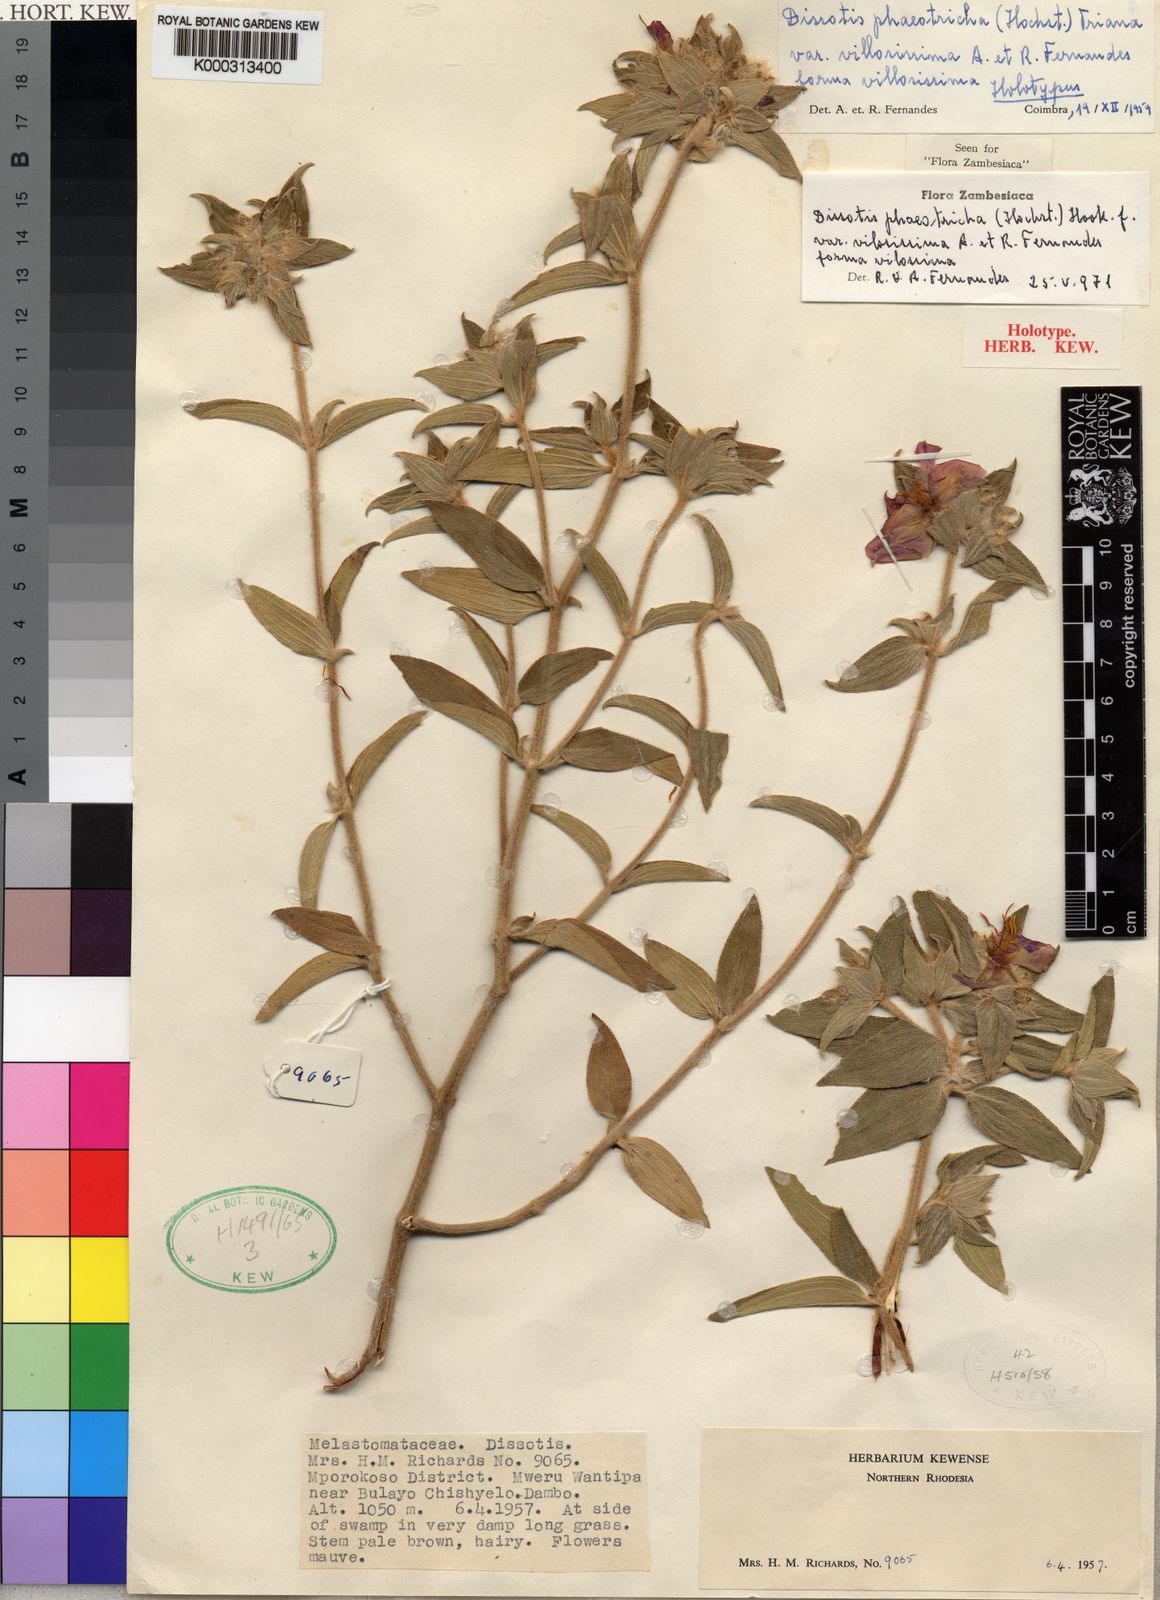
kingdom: Plantae
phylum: Tracheophyta
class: Magnoliopsida
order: Myrtales
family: Melastomataceae
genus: Antherotoma
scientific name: Antherotoma
